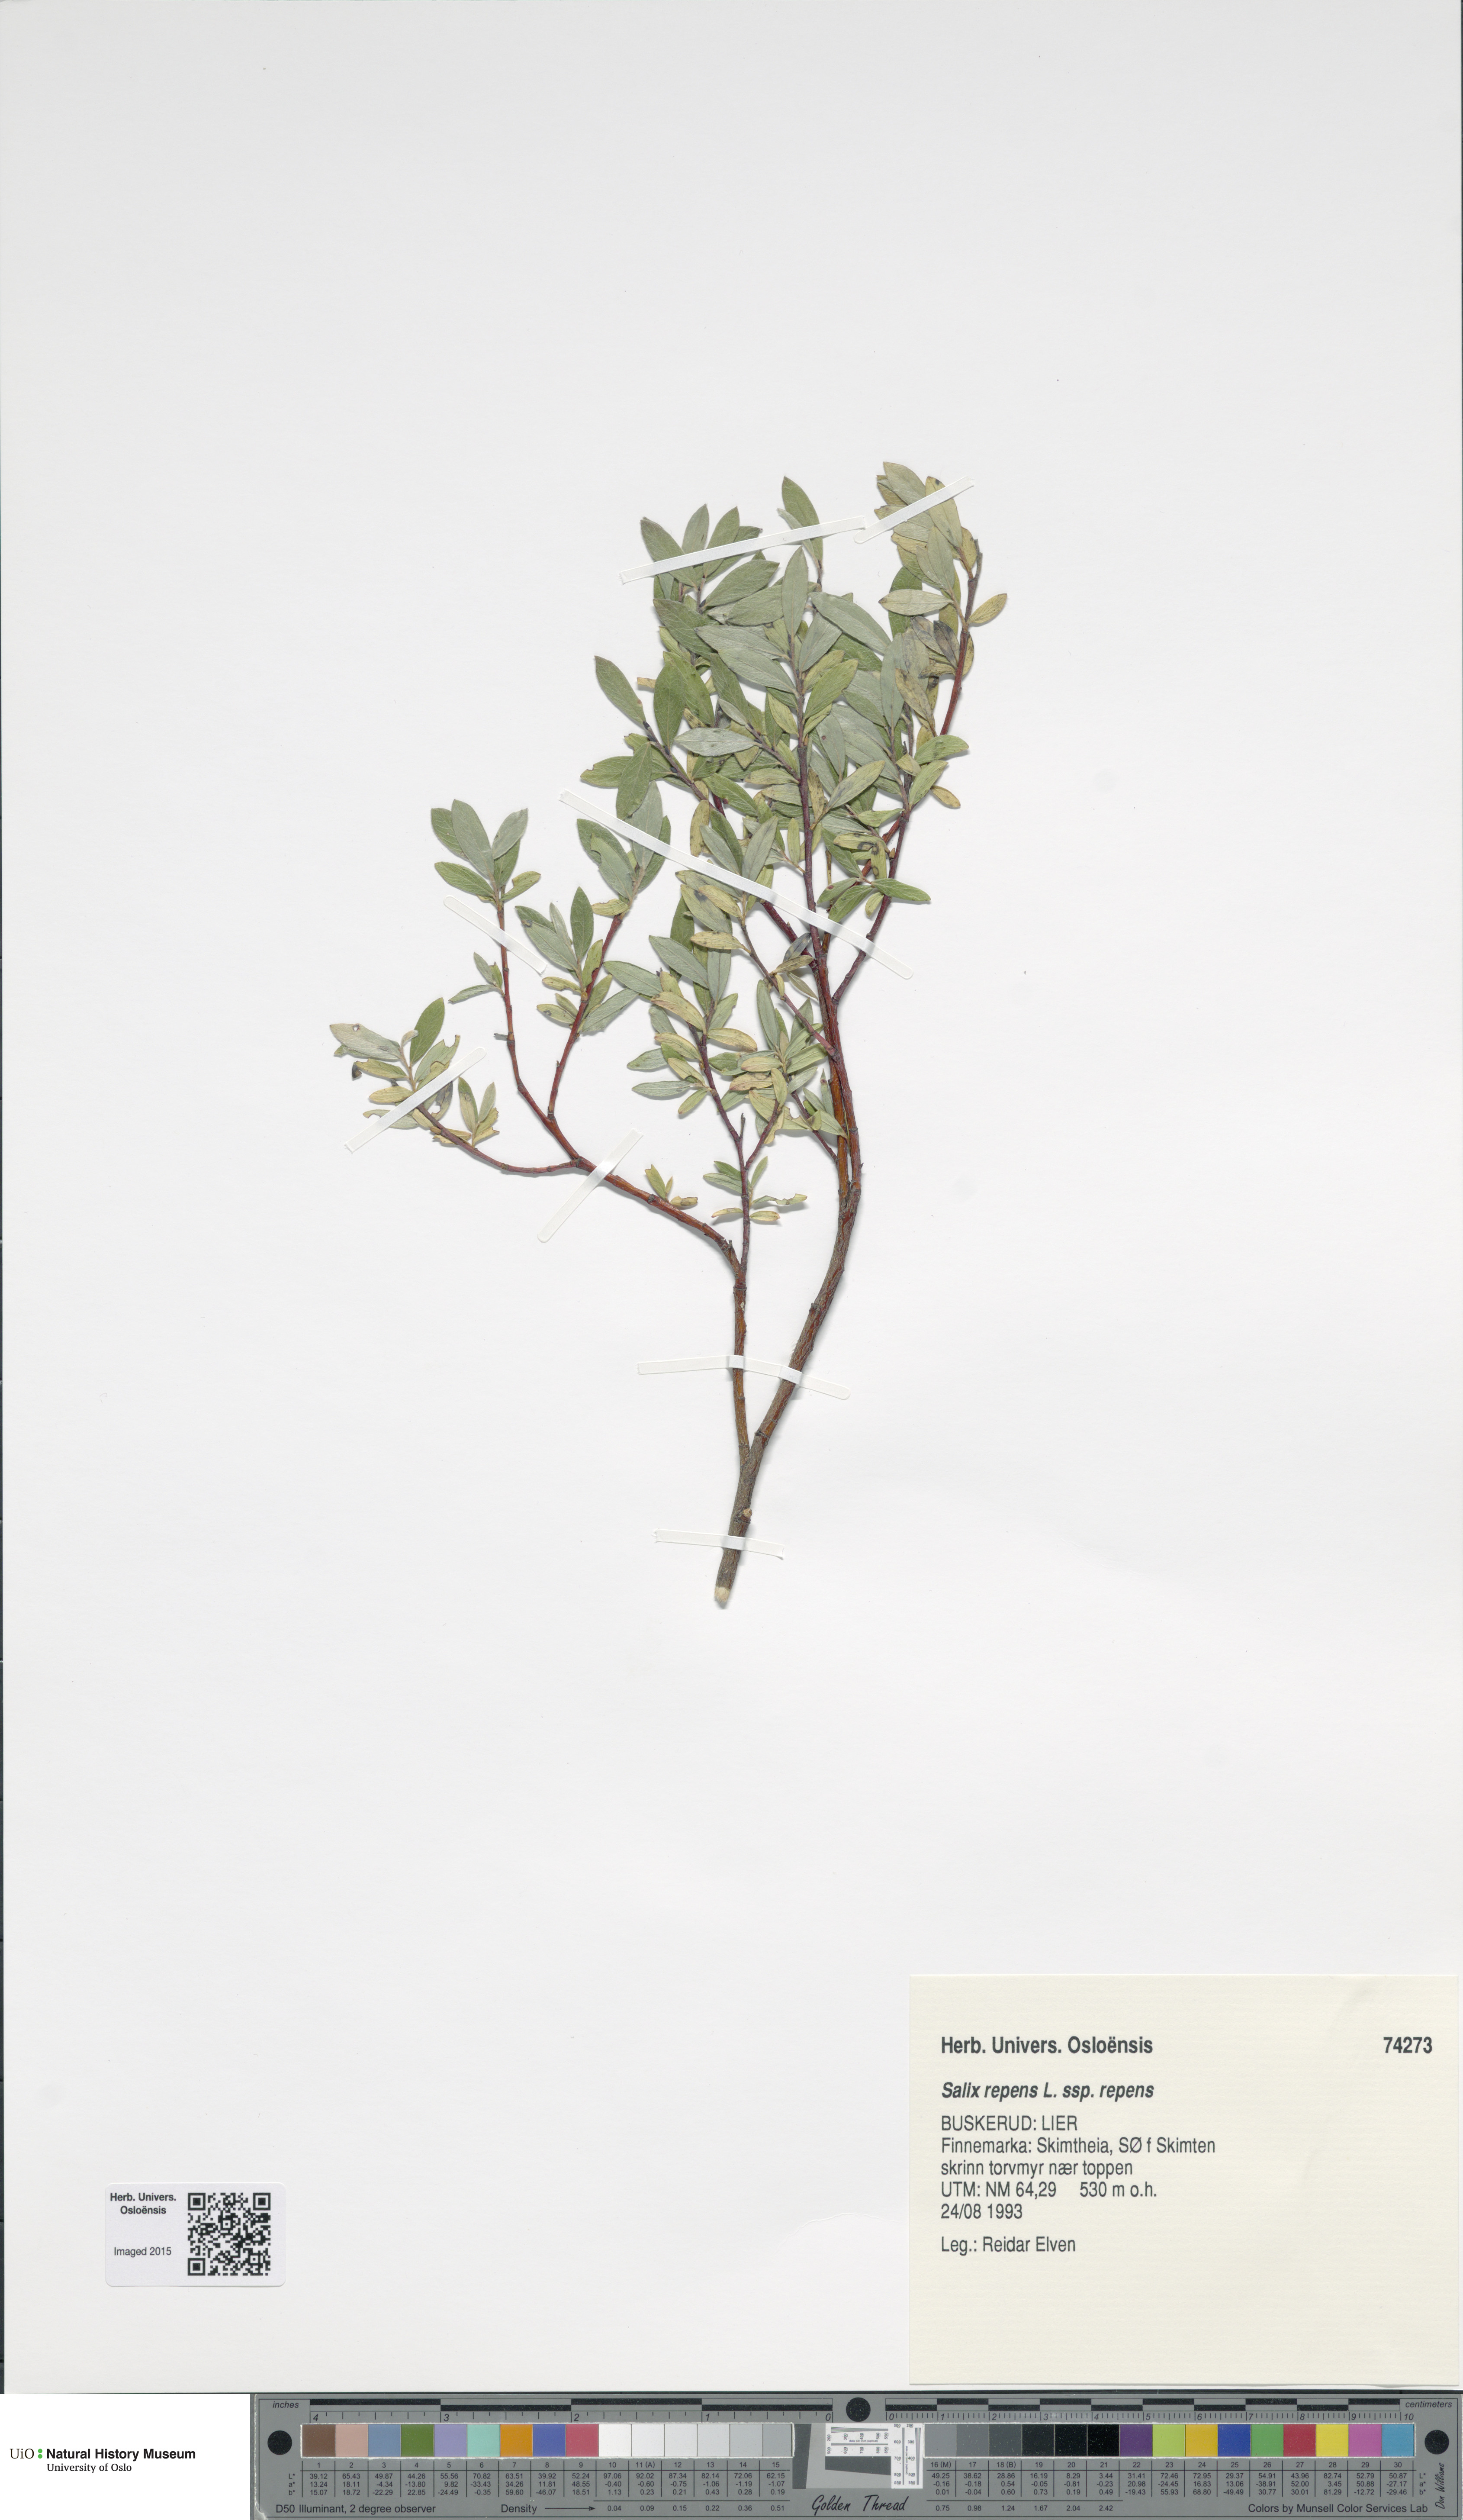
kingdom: Plantae
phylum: Tracheophyta
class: Magnoliopsida
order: Malpighiales
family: Salicaceae
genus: Salix
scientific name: Salix repens
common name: Creeping willow
